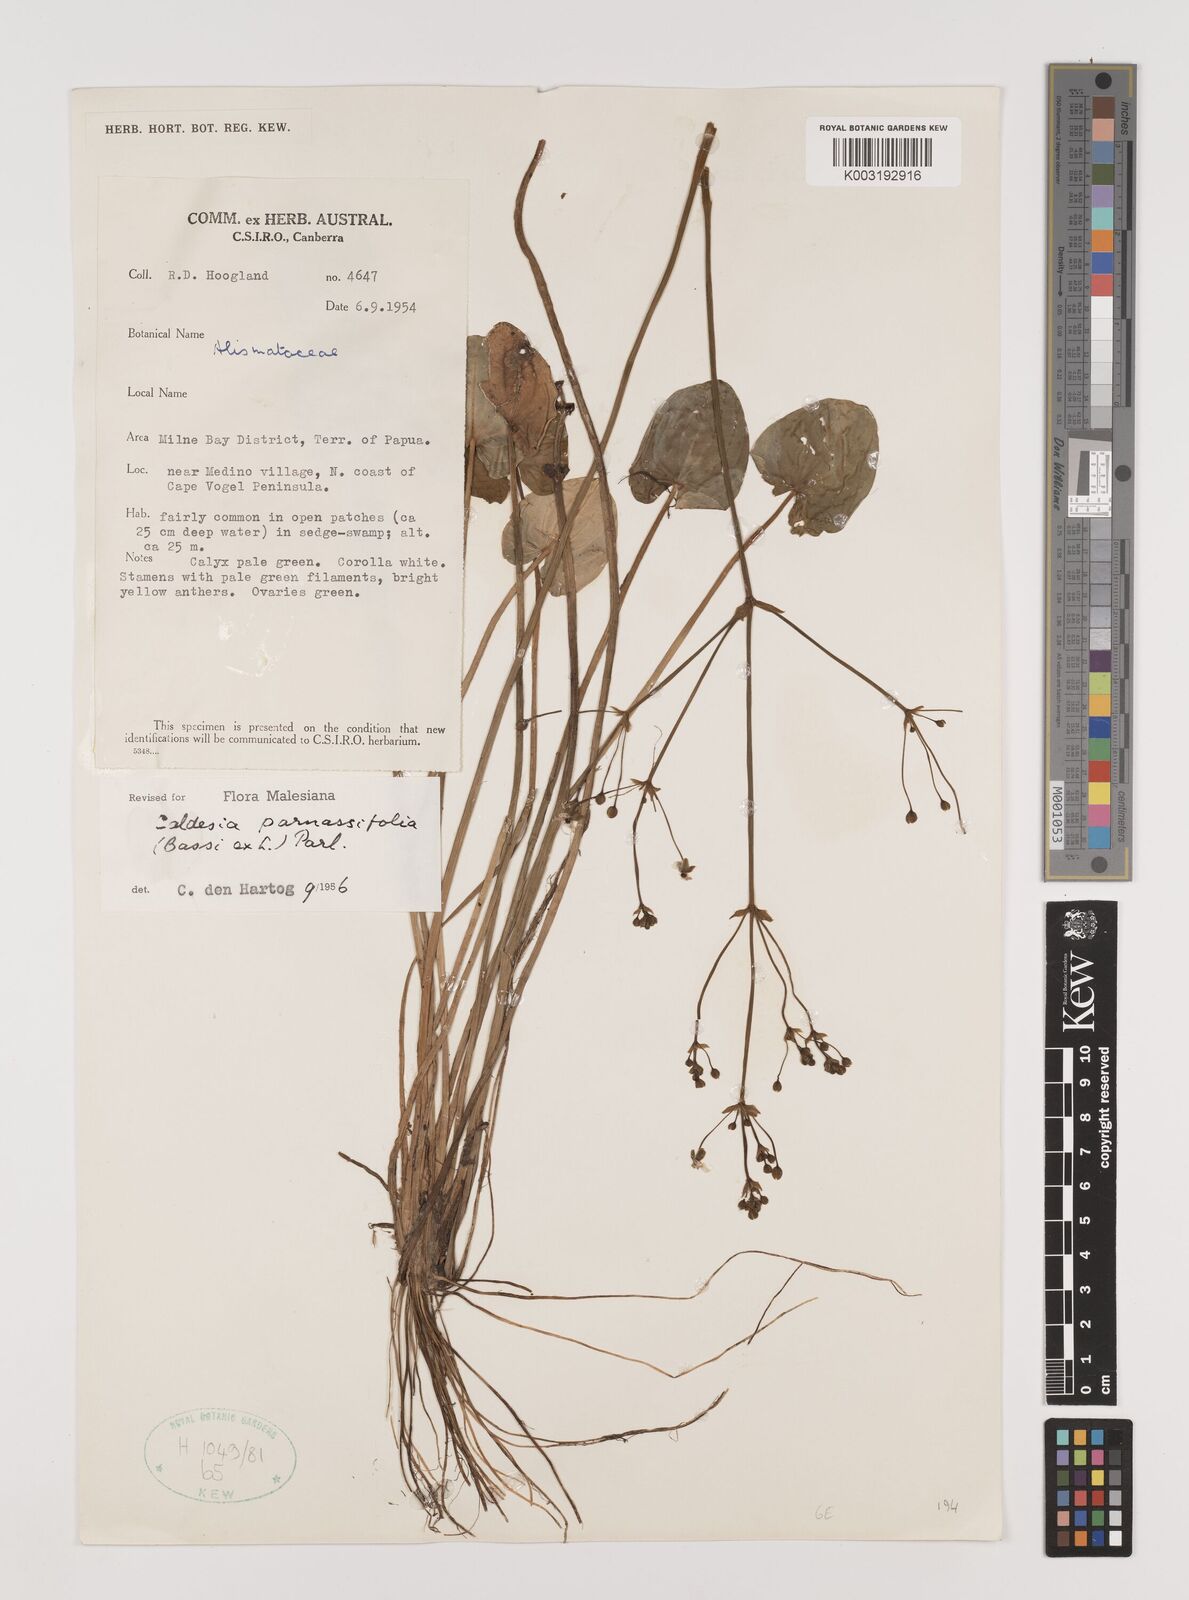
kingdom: Plantae
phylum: Tracheophyta
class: Liliopsida
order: Alismatales
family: Alismataceae
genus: Caldesia
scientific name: Caldesia parnassifolia
